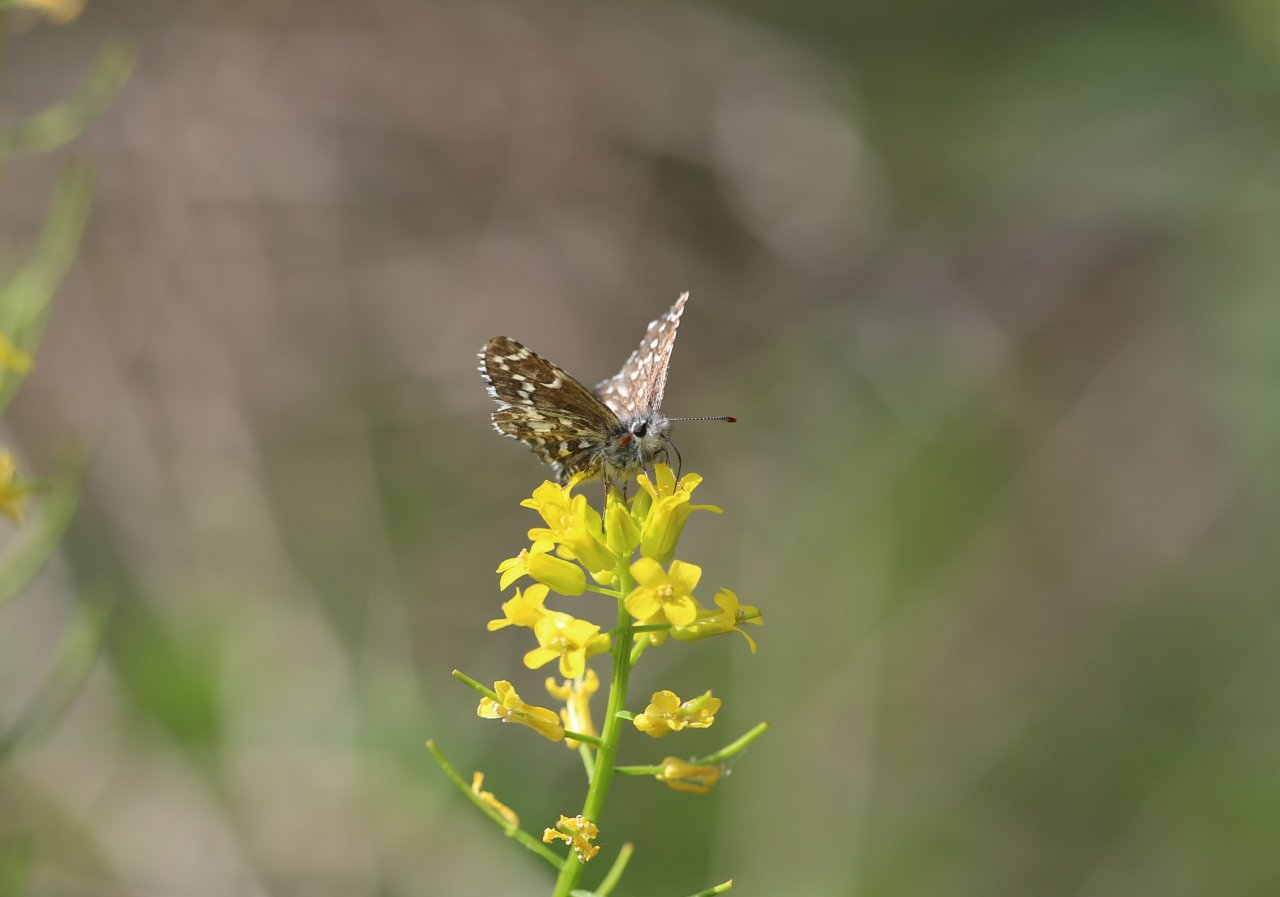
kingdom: Animalia
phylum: Arthropoda
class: Insecta
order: Lepidoptera
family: Hesperiidae
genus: Anisochoria
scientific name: Anisochoria pedaliodina
